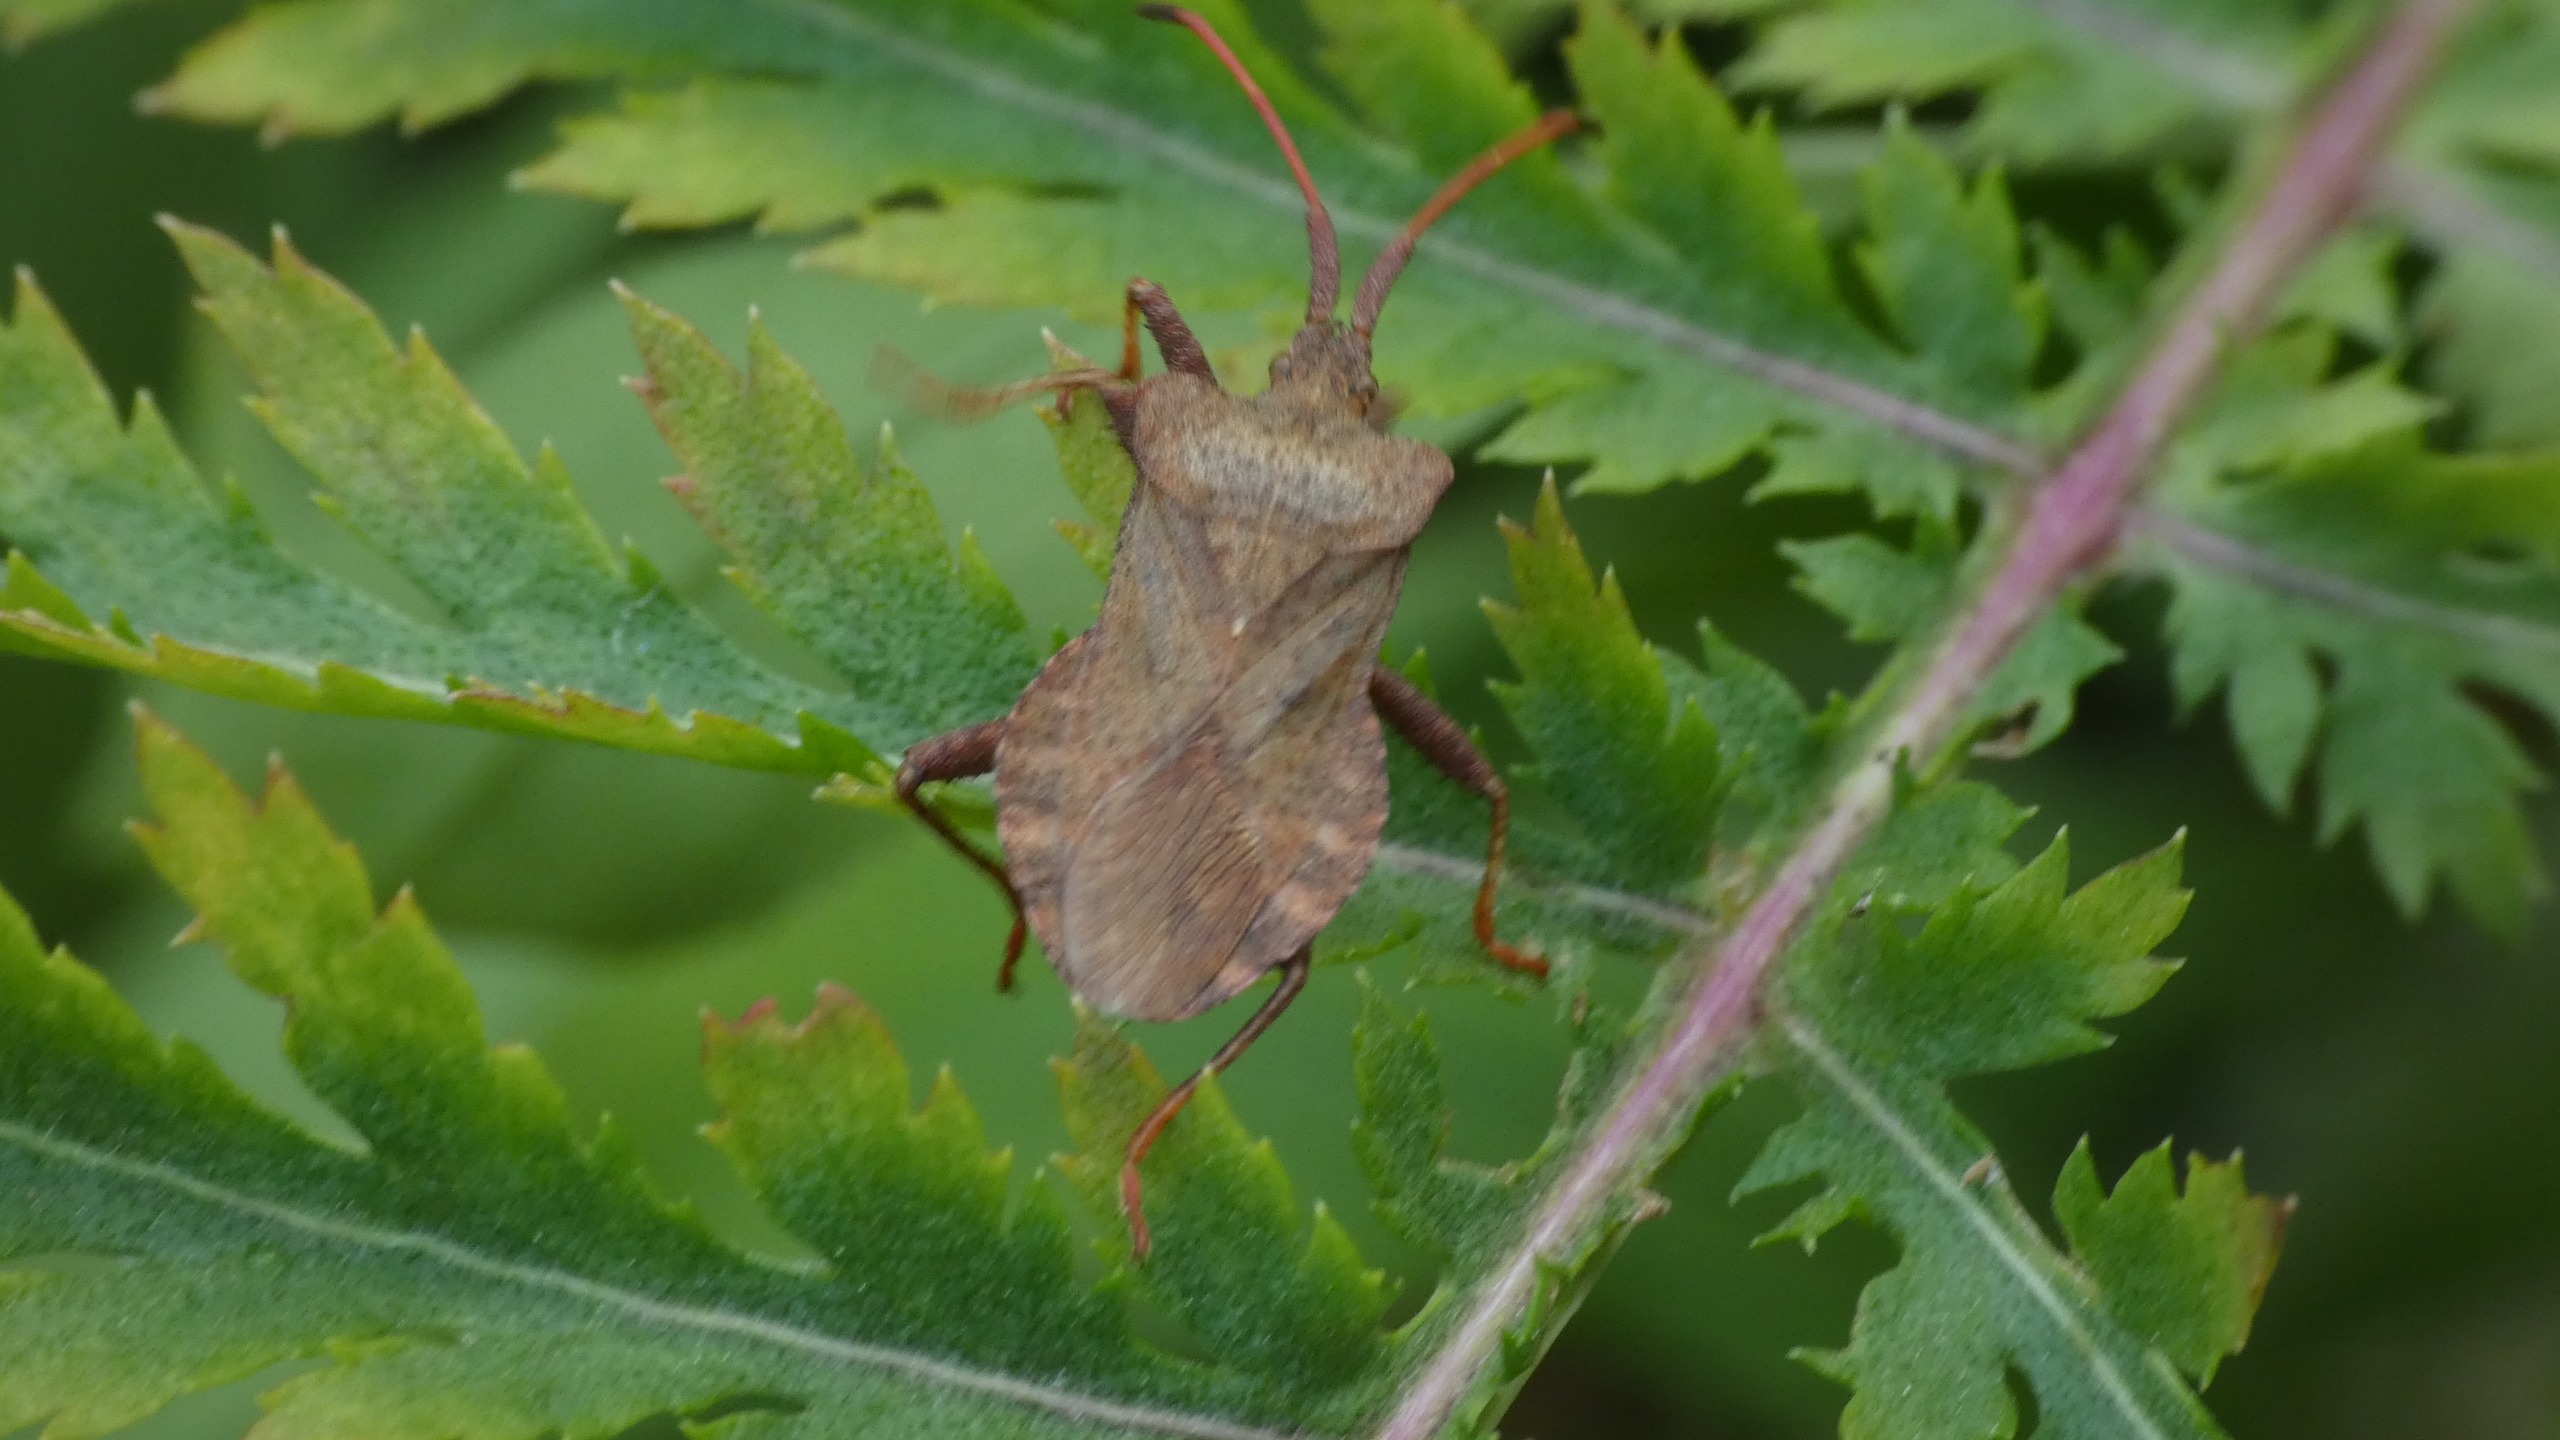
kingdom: Animalia
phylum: Arthropoda
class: Insecta
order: Hemiptera
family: Coreidae
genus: Coreus
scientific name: Coreus marginatus
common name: Skræppetæge
